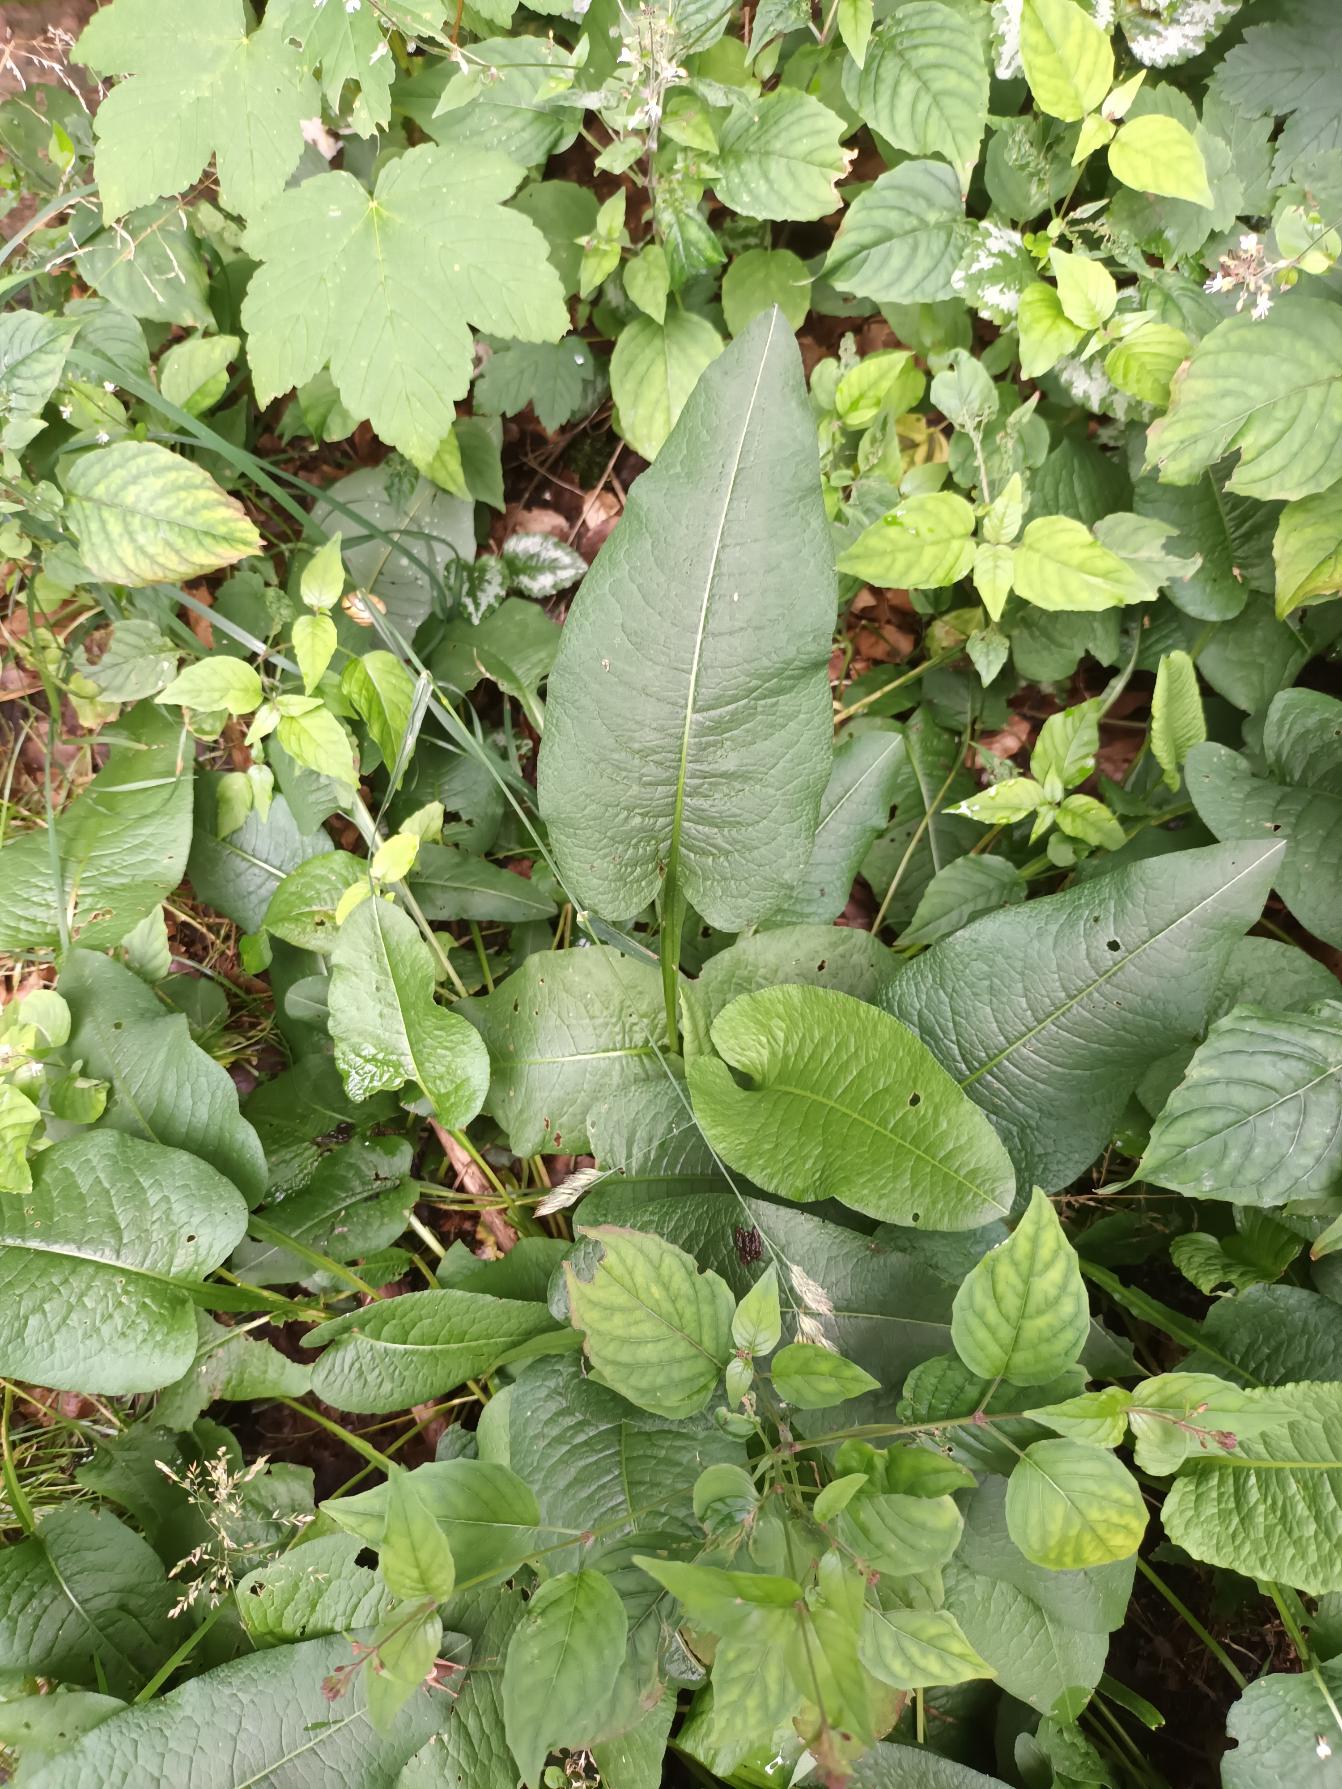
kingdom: Plantae
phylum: Tracheophyta
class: Magnoliopsida
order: Caryophyllales
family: Polygonaceae
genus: Bistorta
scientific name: Bistorta officinalis
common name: Slangeurt
